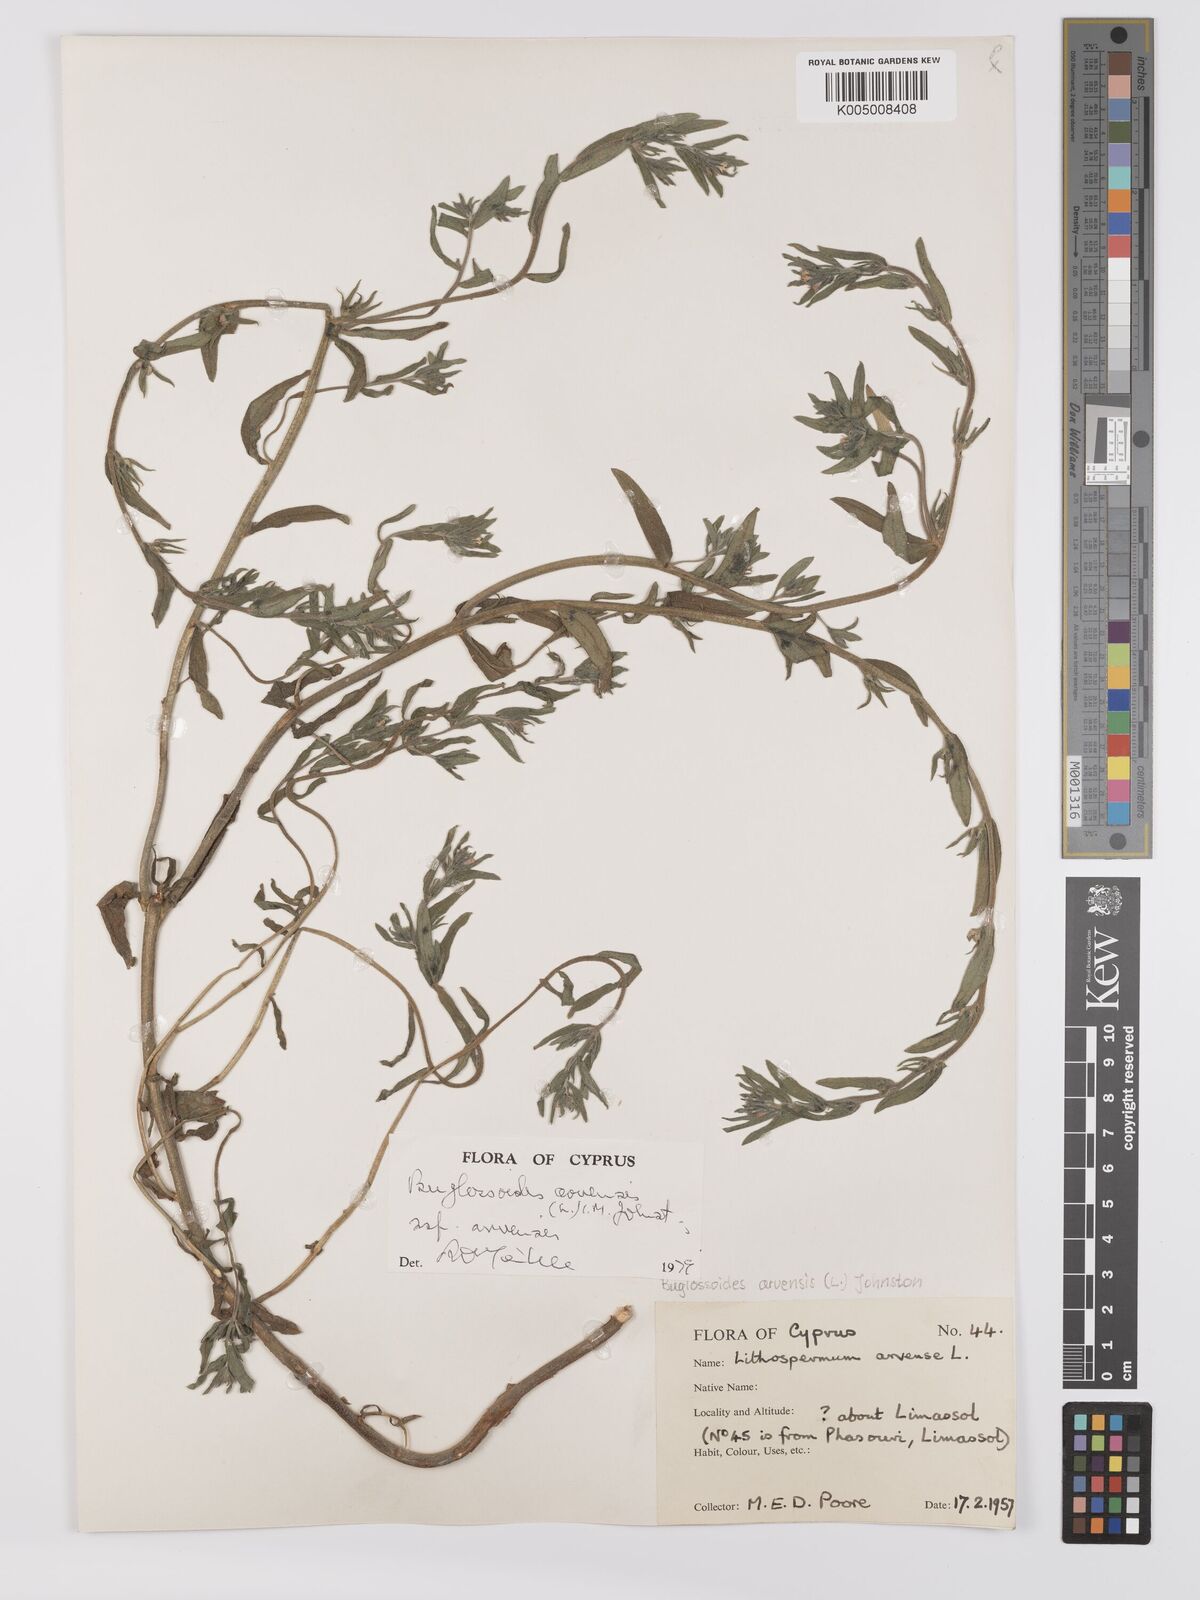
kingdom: Plantae
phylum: Tracheophyta
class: Magnoliopsida
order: Boraginales
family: Boraginaceae
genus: Buglossoides
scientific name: Buglossoides arvensis
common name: Corn gromwell
